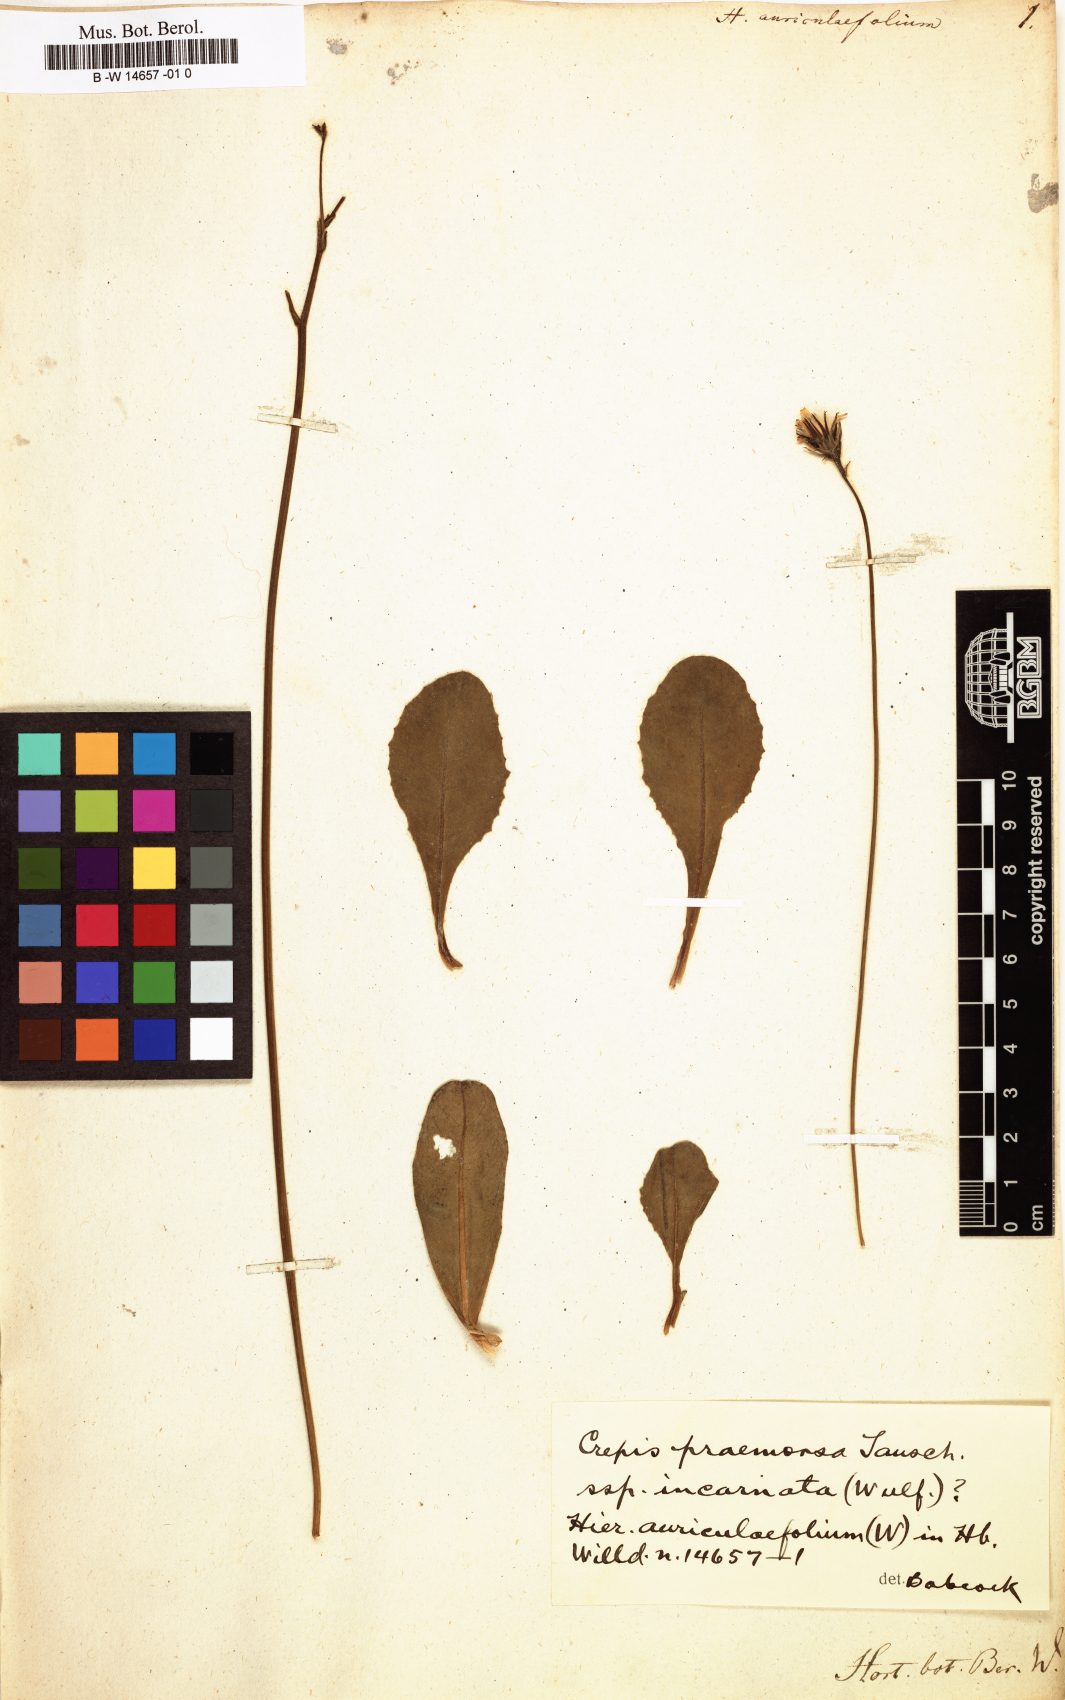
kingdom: Plantae
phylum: Tracheophyta
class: Magnoliopsida
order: Asterales
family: Asteraceae
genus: Hieracium
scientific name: Hieracium auriculifolium
